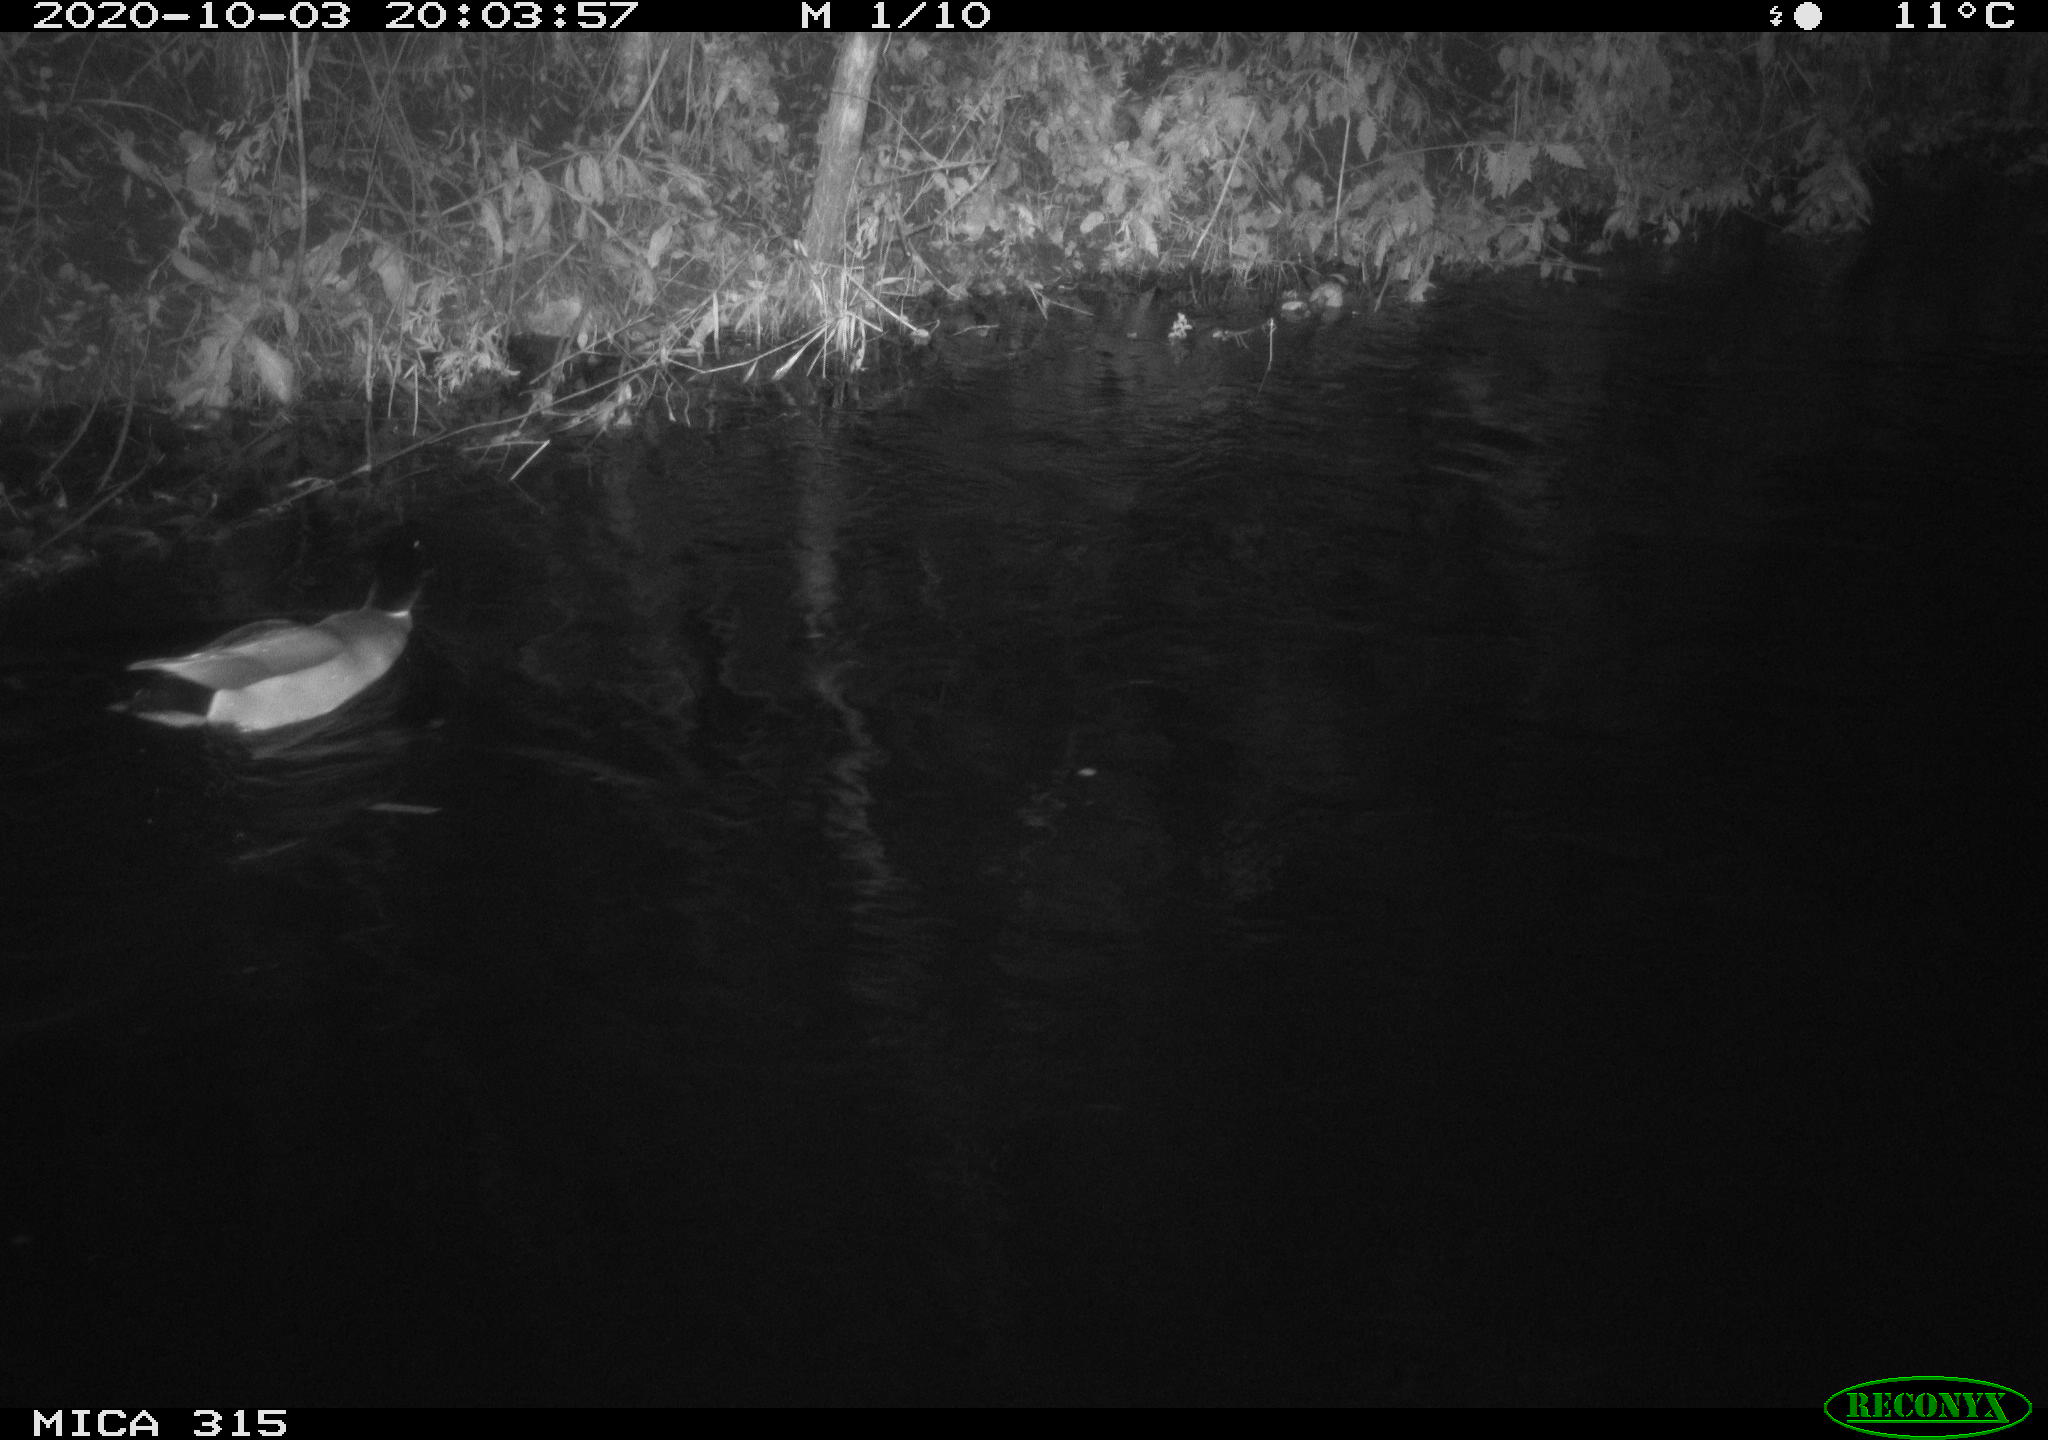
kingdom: Animalia
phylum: Chordata
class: Aves
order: Anseriformes
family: Anatidae
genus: Anas
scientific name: Anas platyrhynchos
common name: Mallard
